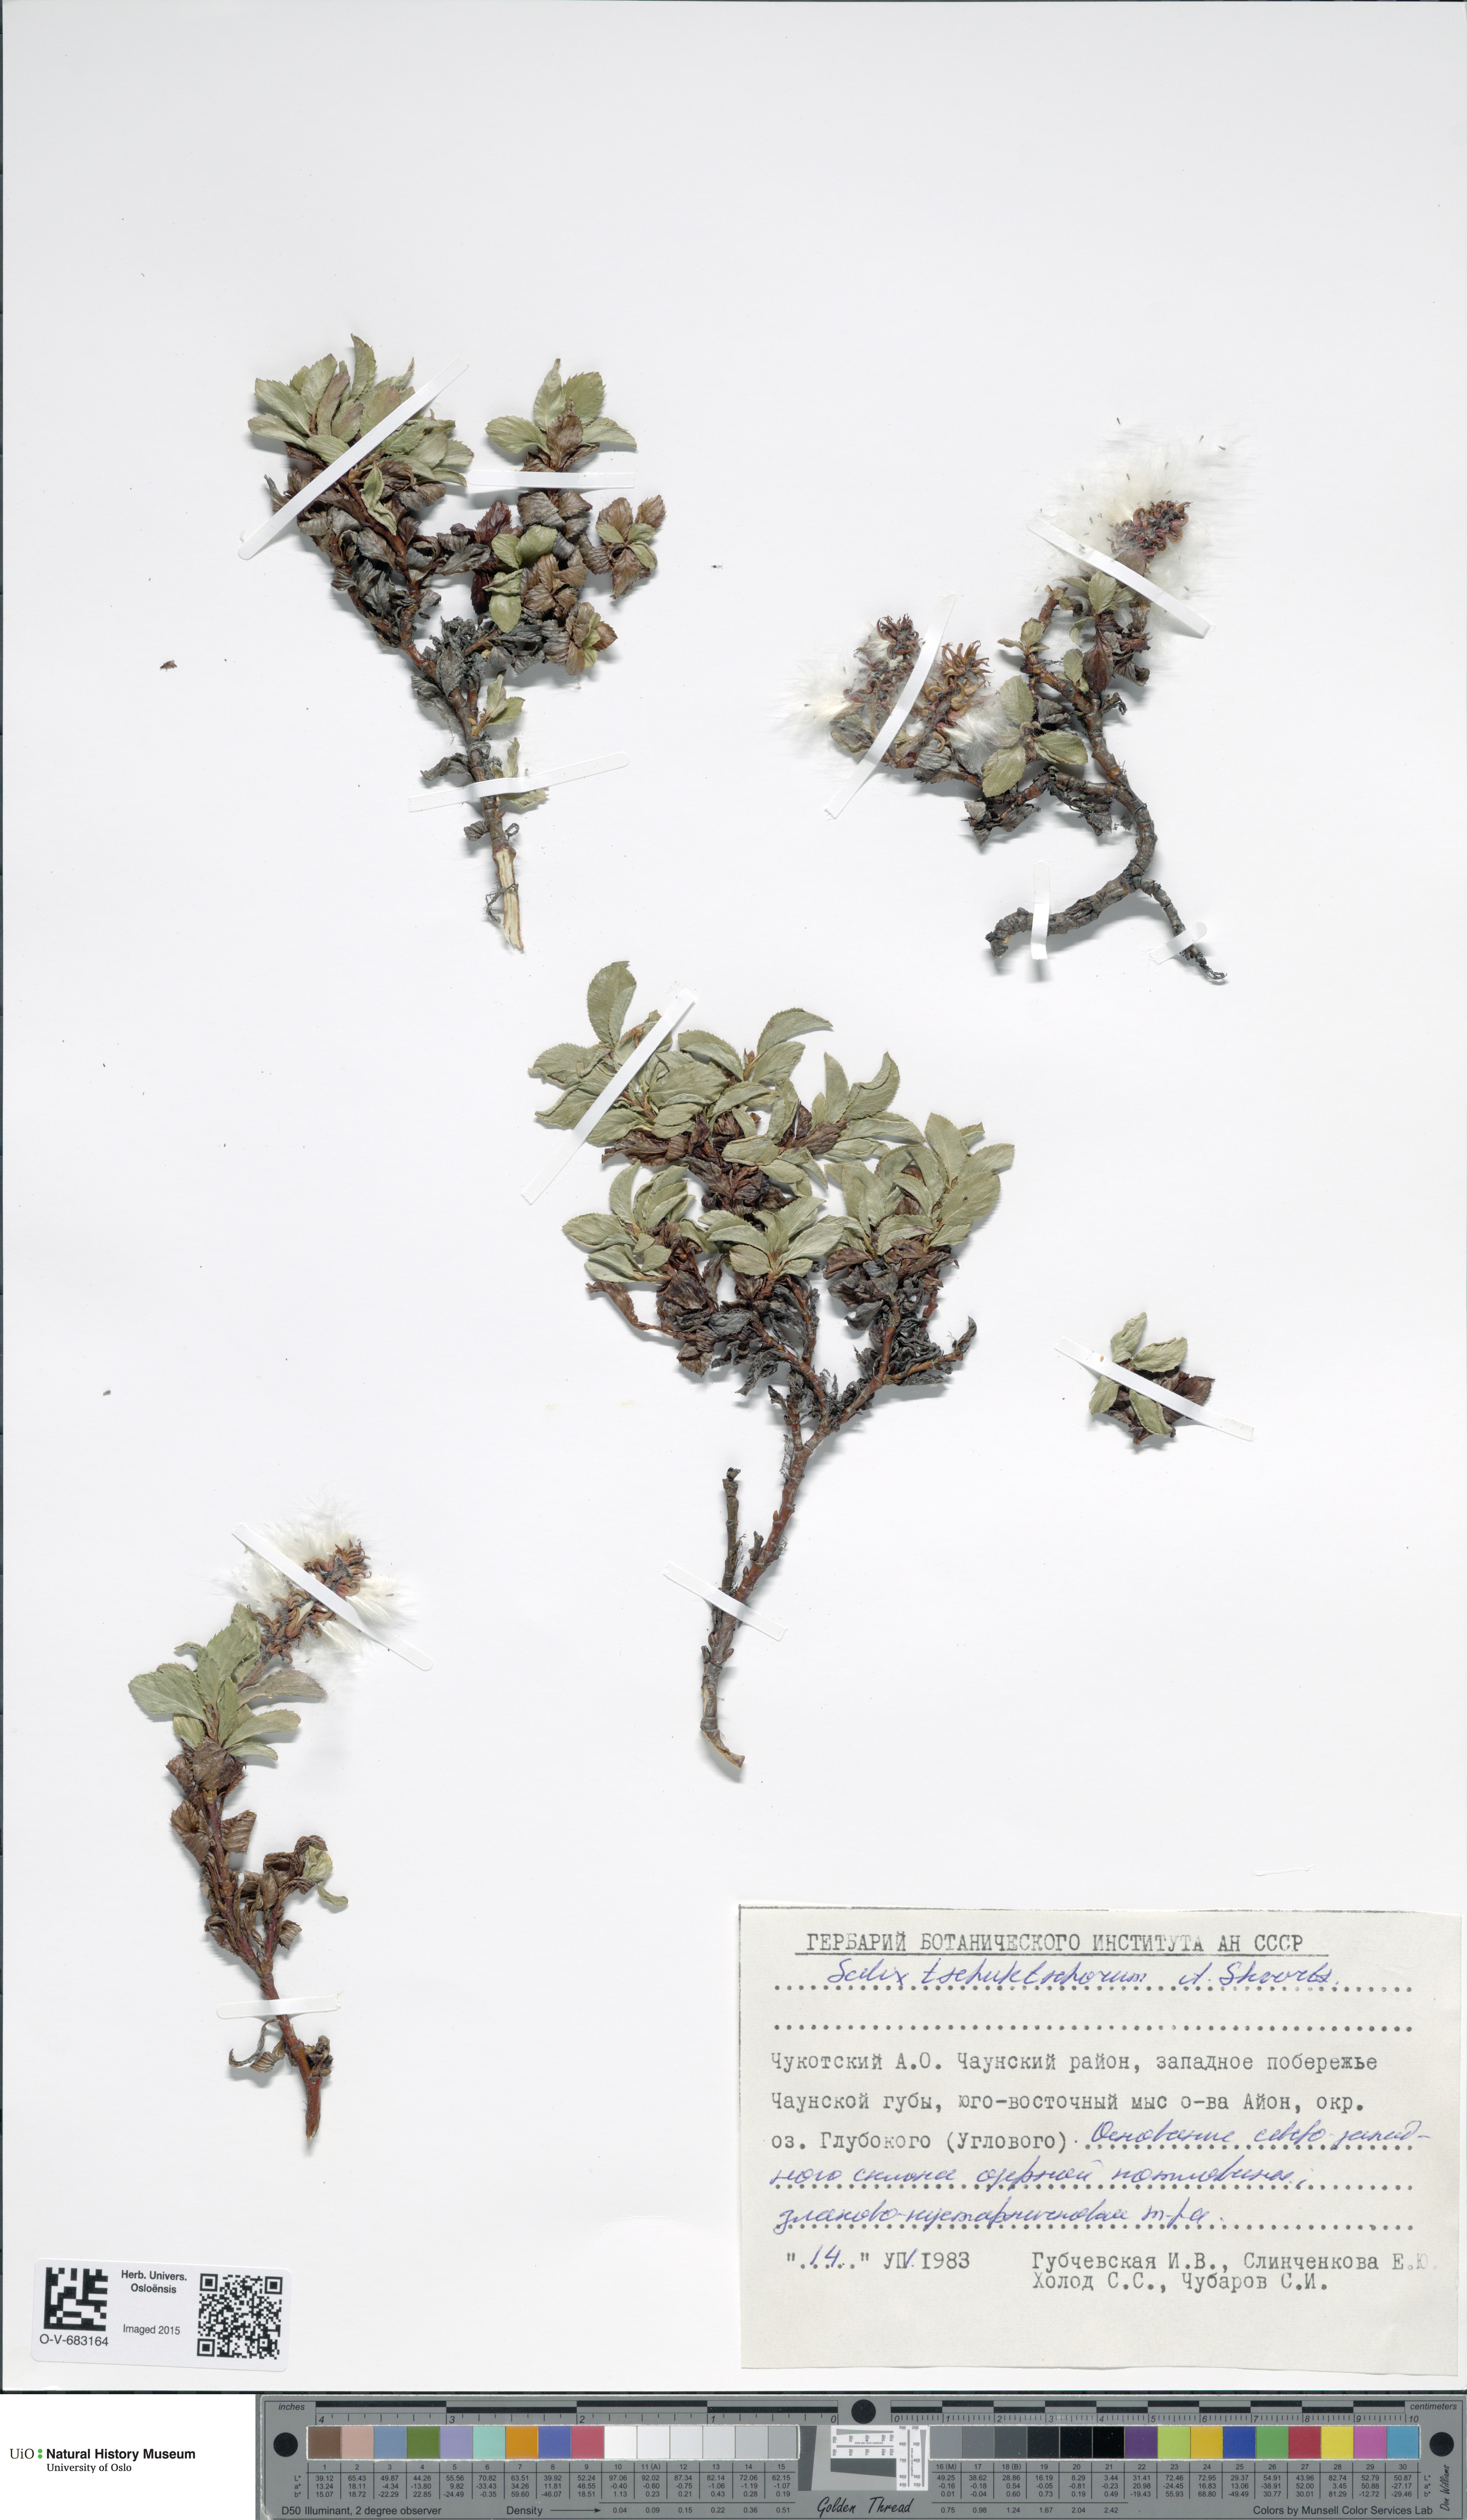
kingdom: Plantae
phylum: Tracheophyta
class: Magnoliopsida
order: Malpighiales
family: Salicaceae
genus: Salix
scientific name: Salix tschuktschorum
